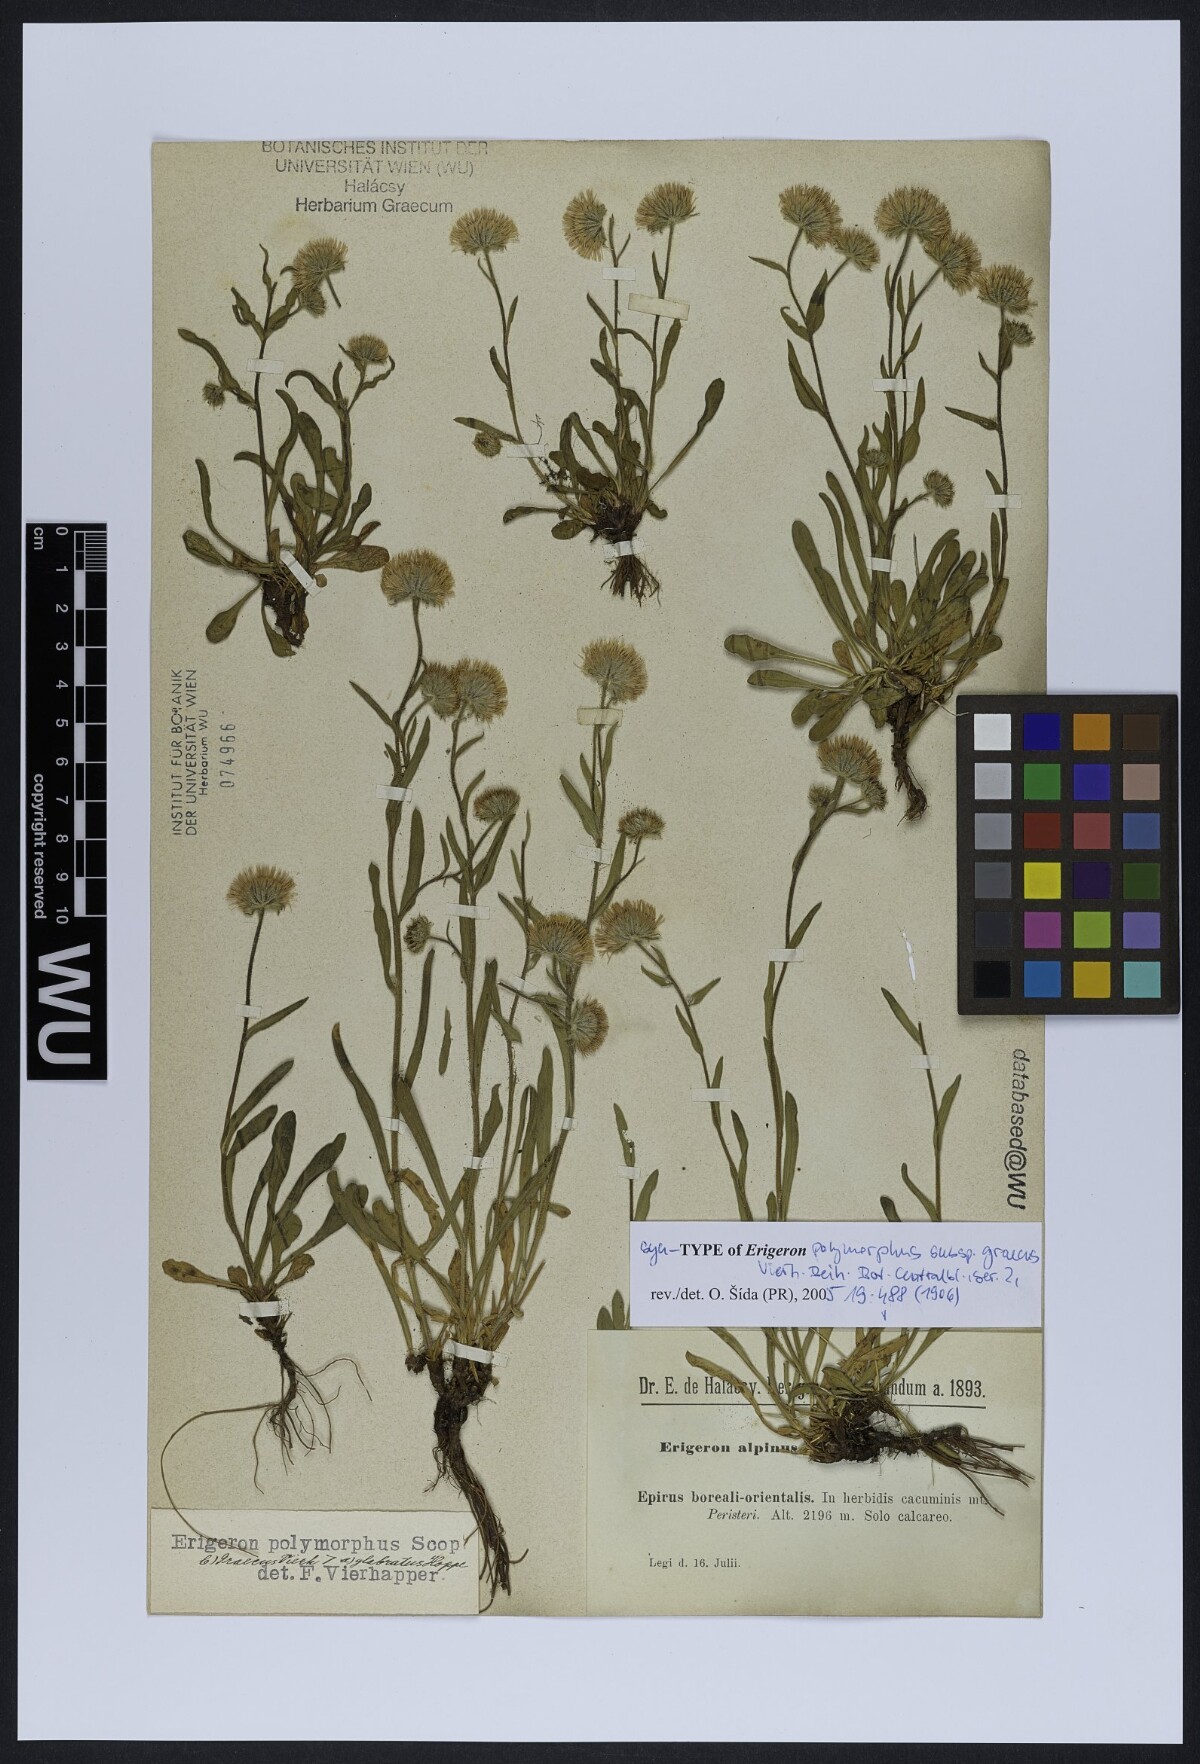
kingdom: Plantae
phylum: Tracheophyta
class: Magnoliopsida
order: Asterales
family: Asteraceae
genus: Erigeron
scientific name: Erigeron glabratus
